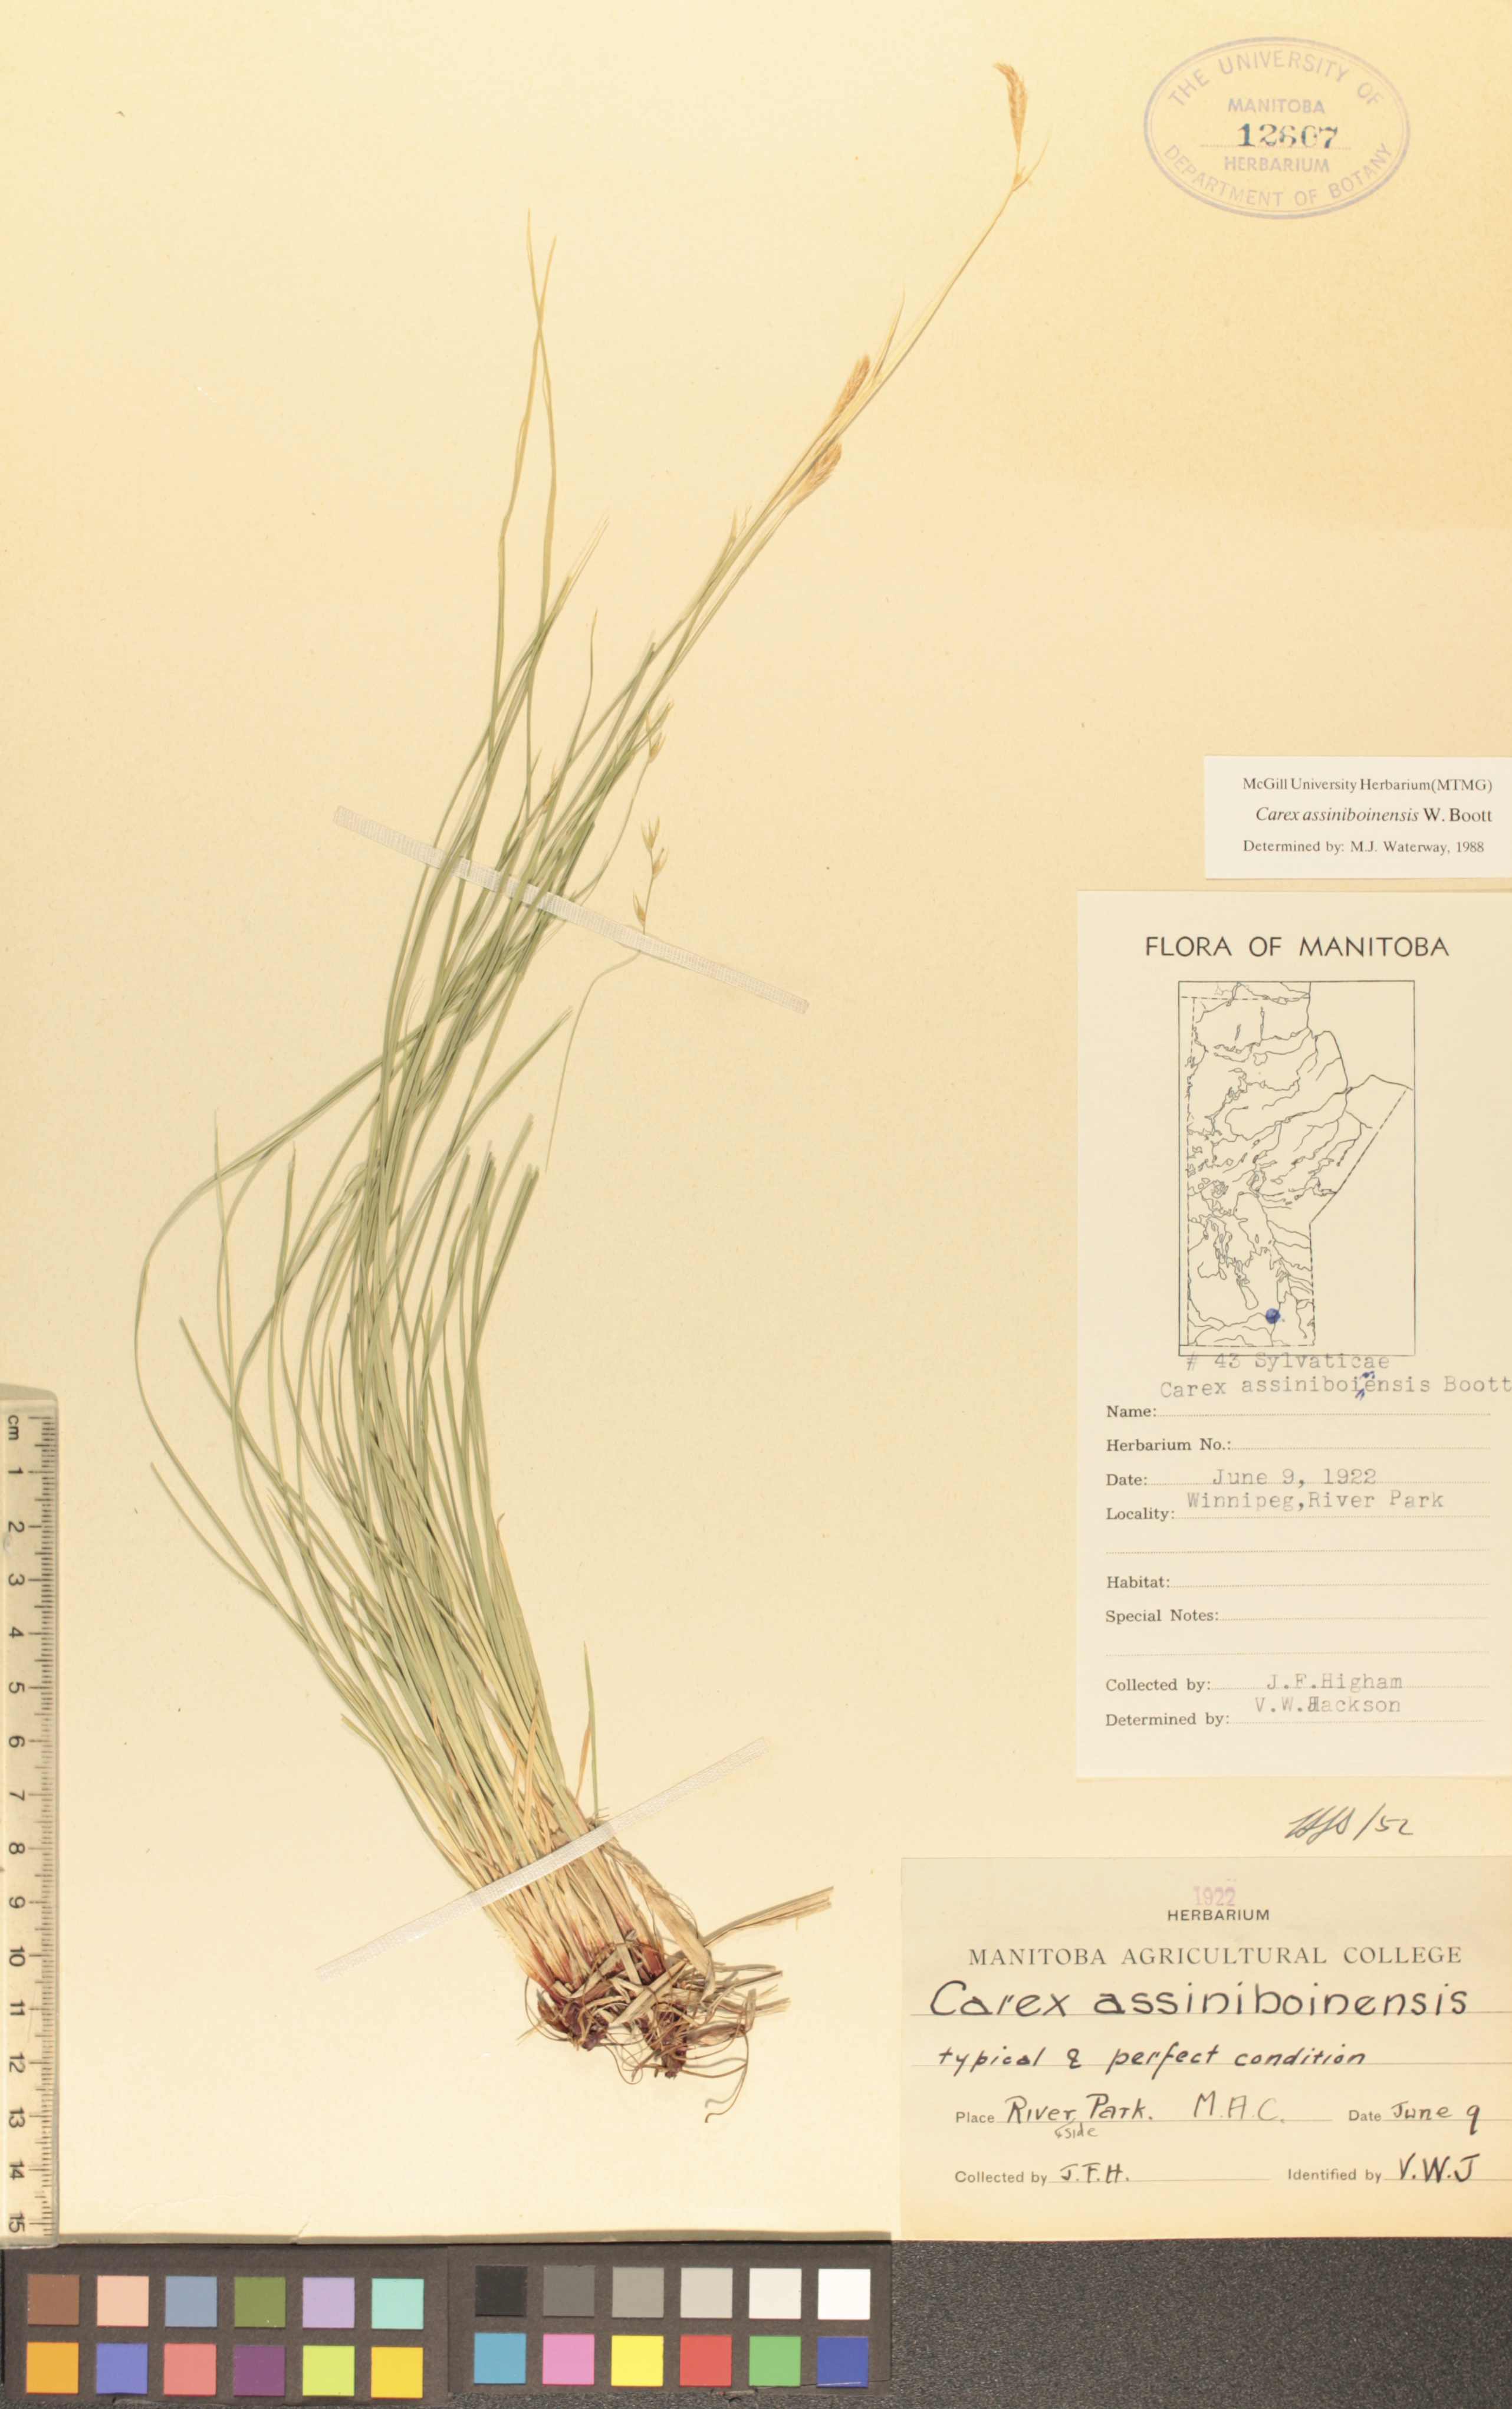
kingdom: Plantae
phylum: Tracheophyta
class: Liliopsida
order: Poales
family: Cyperaceae
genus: Carex
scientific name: Carex assiniboinensis
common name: Assiniboia sedge
